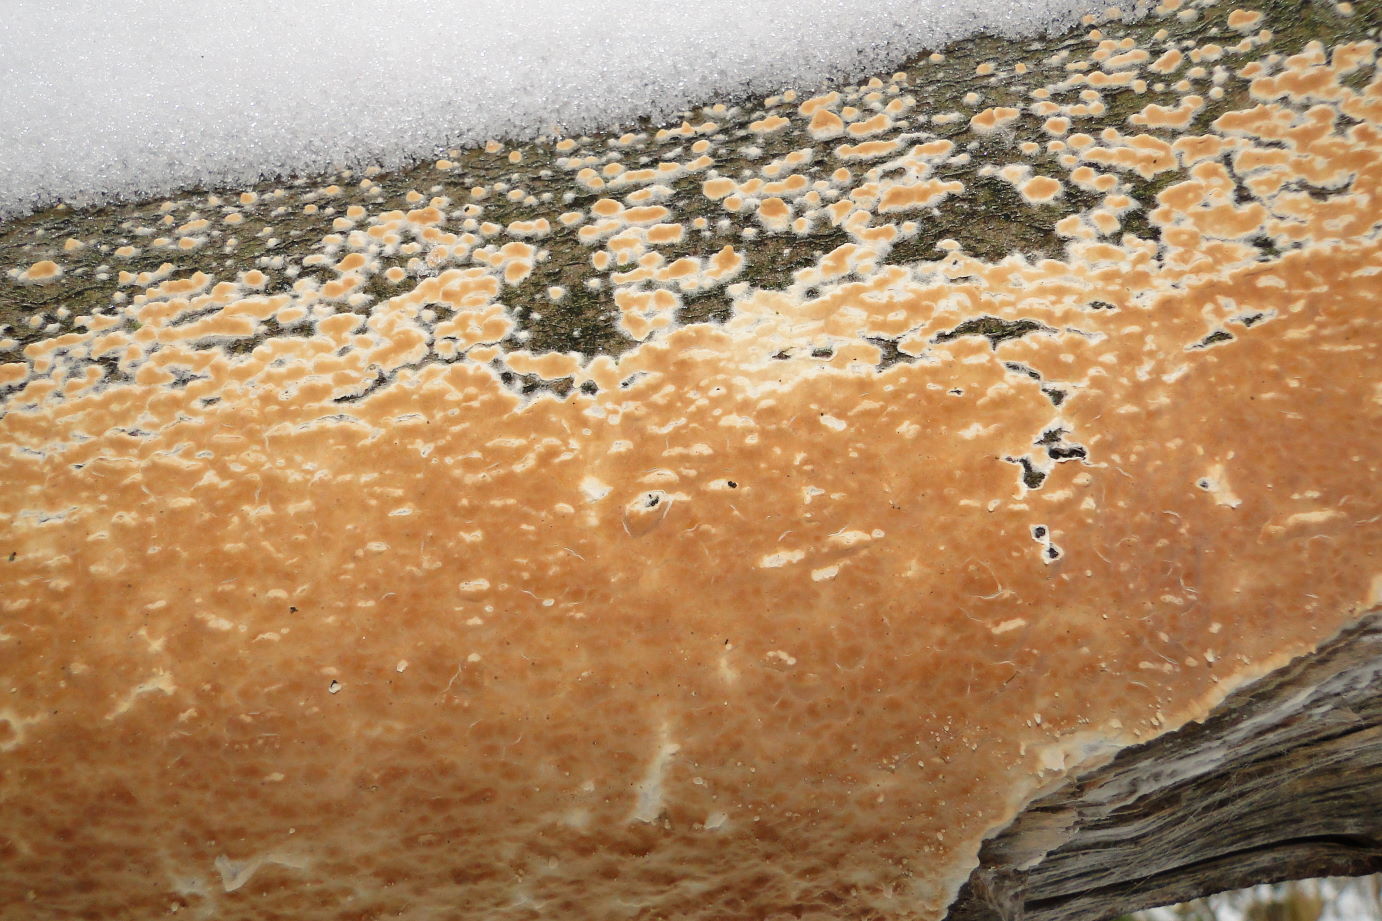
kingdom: Fungi
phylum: Basidiomycota
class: Agaricomycetes
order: Agaricales
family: Physalacriaceae
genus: Cylindrobasidium
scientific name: Cylindrobasidium evolvens
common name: sprækkehinde
